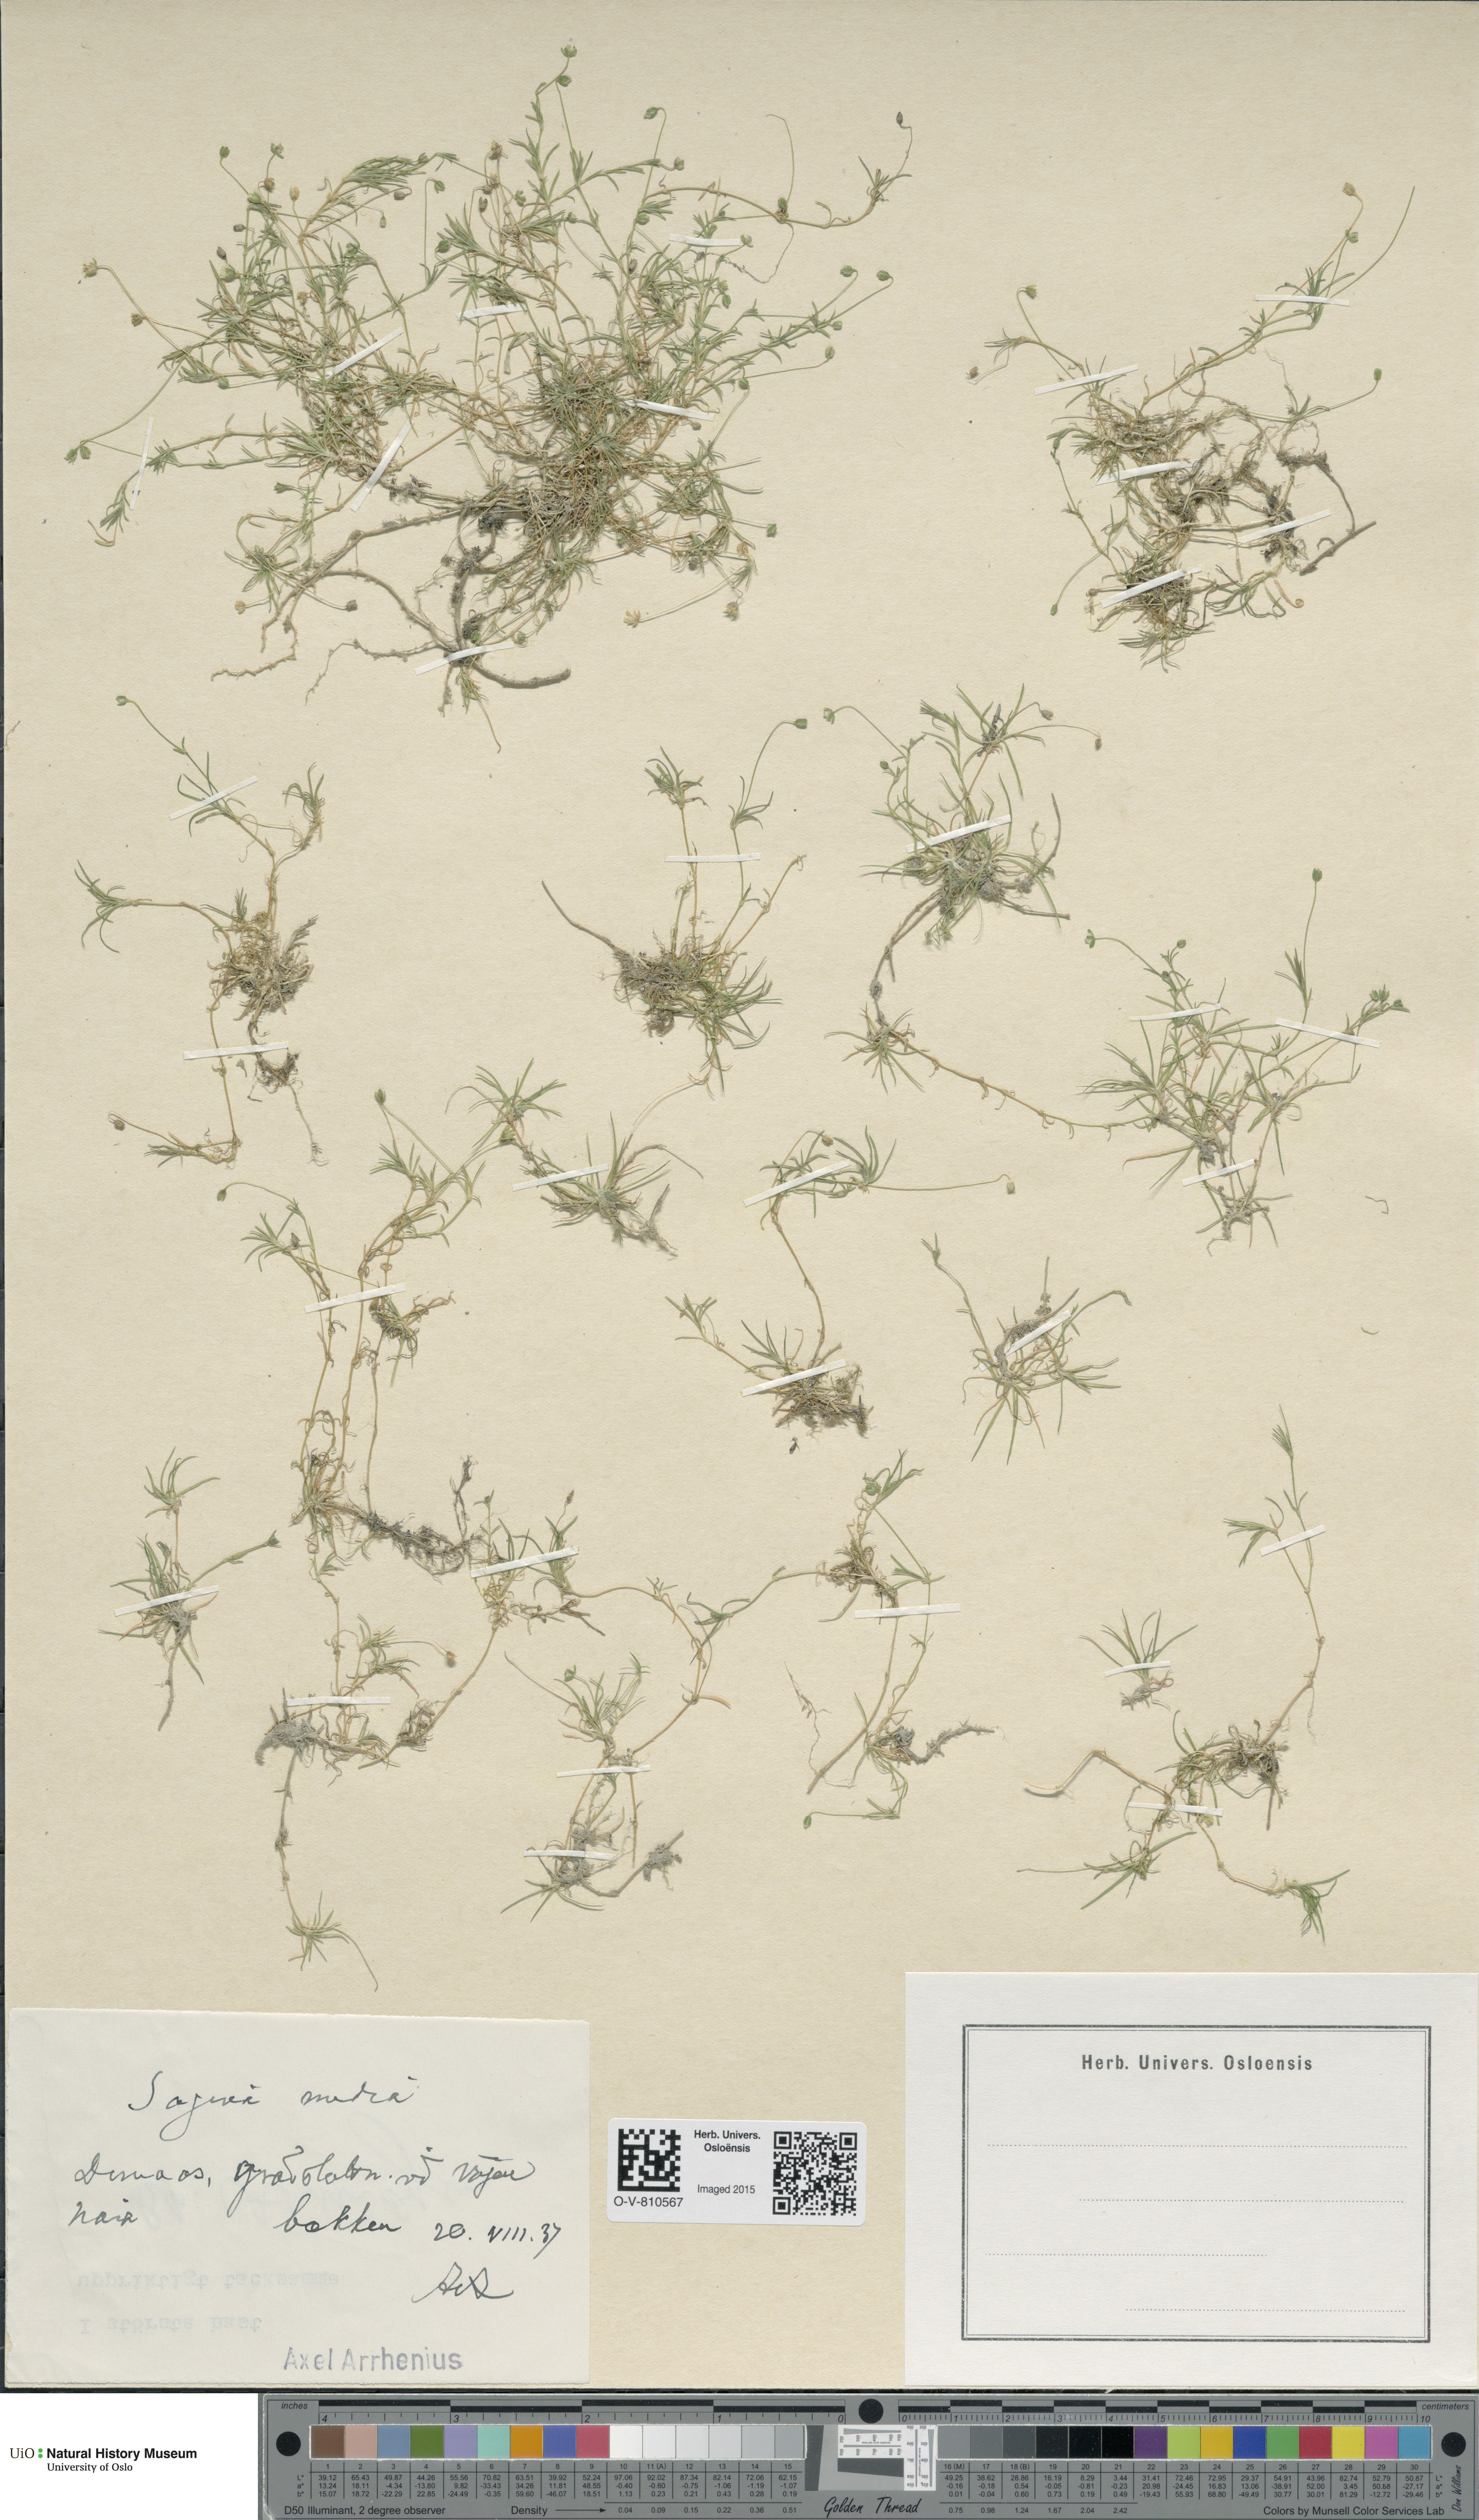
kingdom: Plantae
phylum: Tracheophyta
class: Magnoliopsida
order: Caryophyllales
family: Caryophyllaceae
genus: Sagina
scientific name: Sagina media
